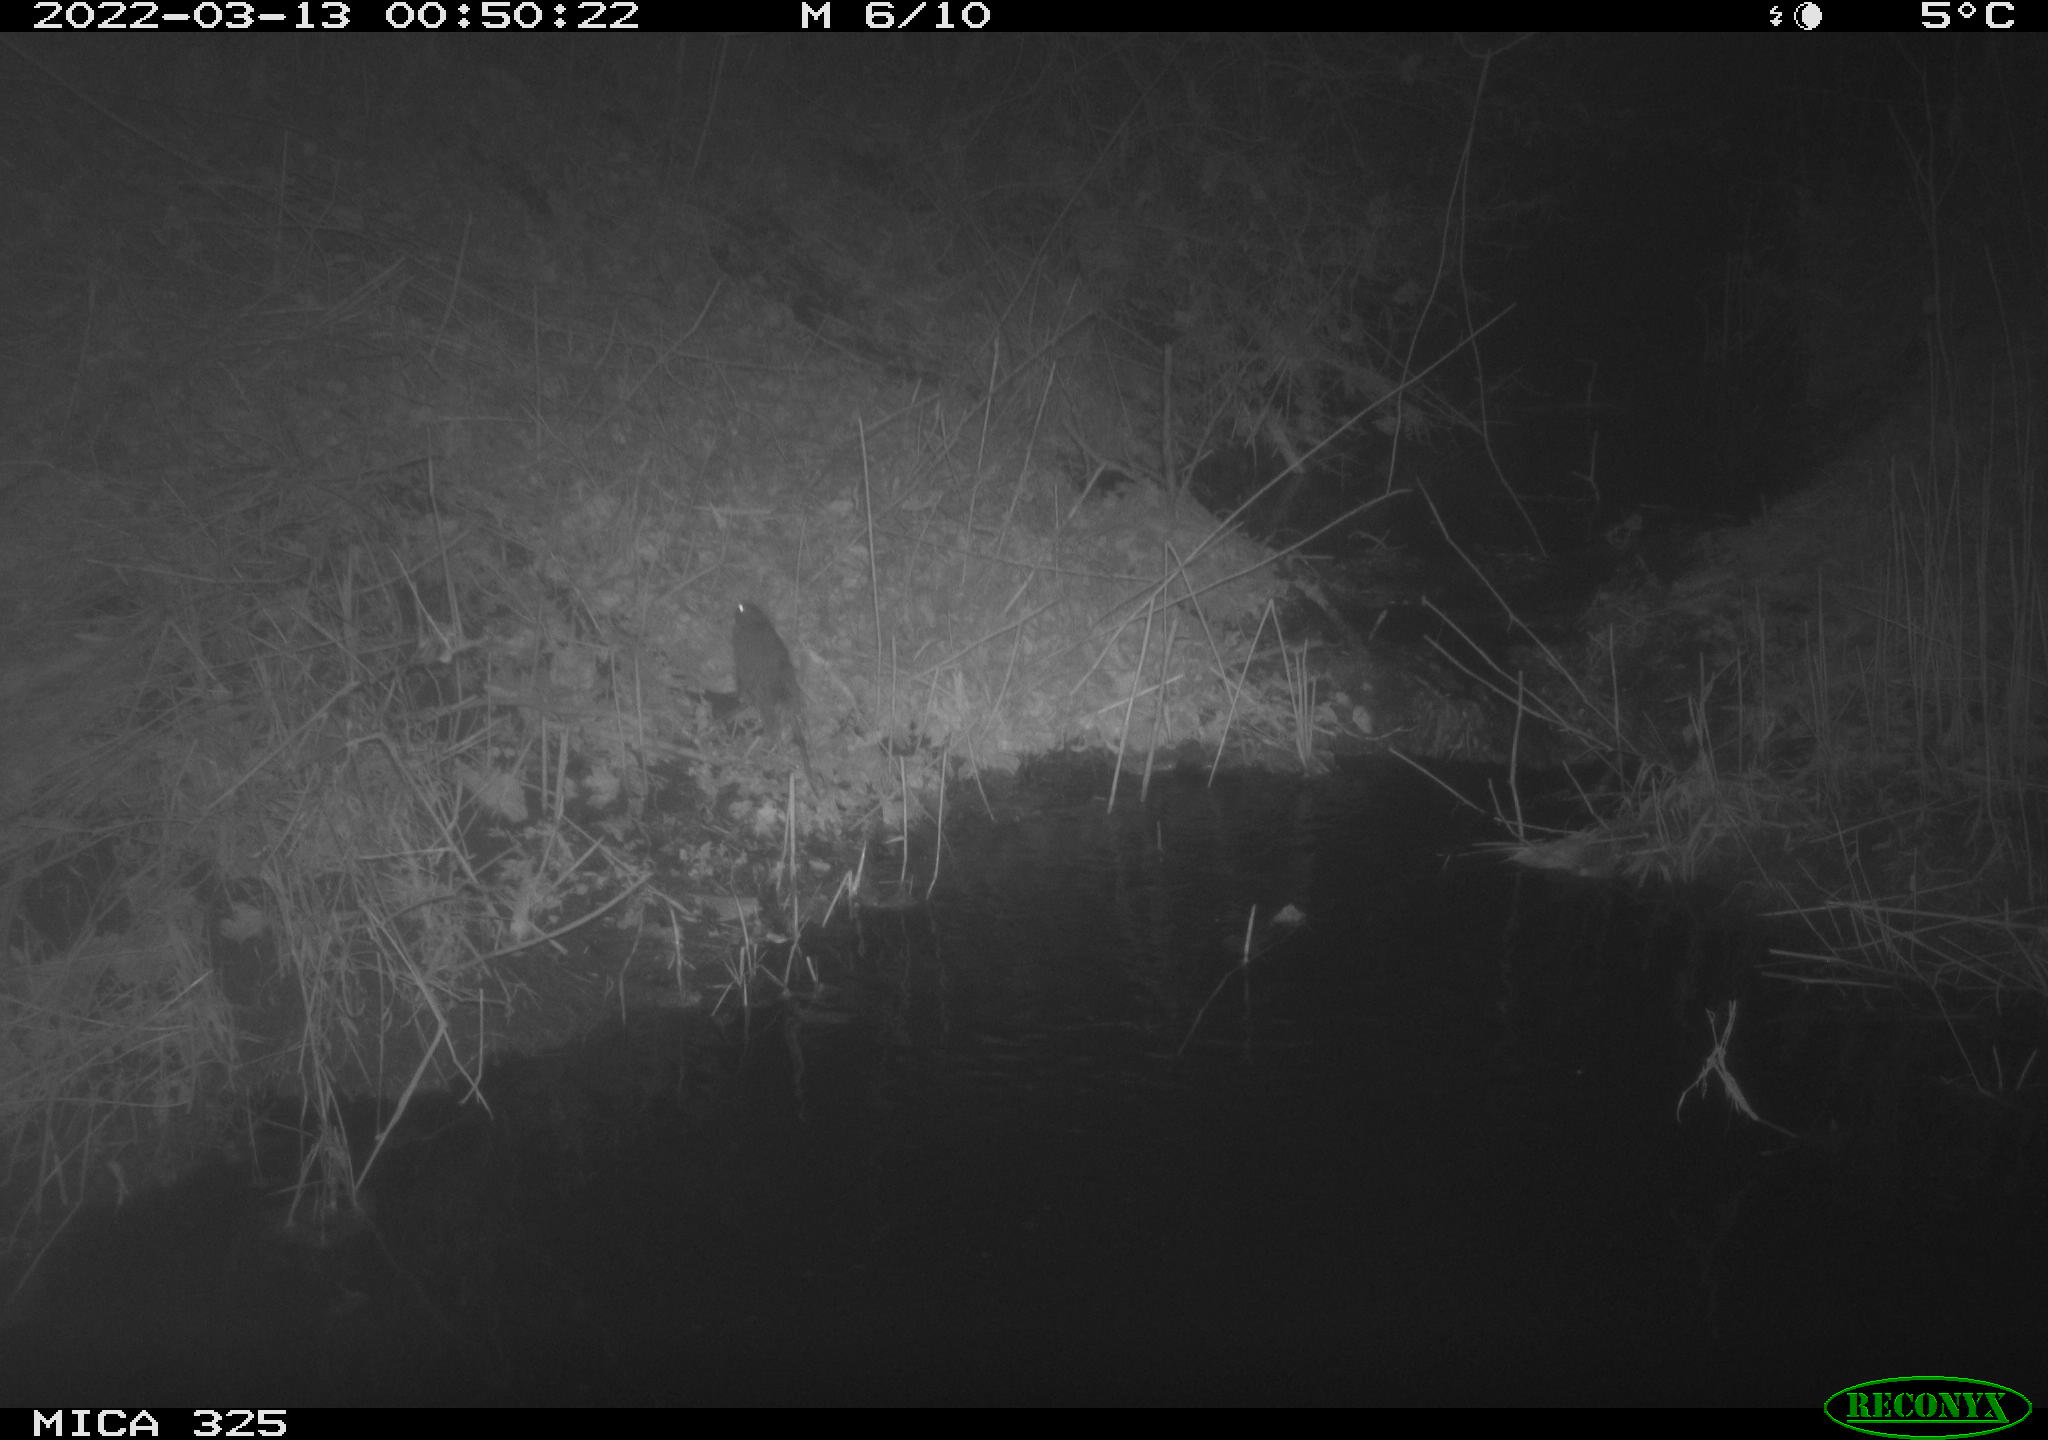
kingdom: Animalia
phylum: Chordata
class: Mammalia
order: Rodentia
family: Muridae
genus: Rattus
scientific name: Rattus norvegicus
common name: Brown rat
